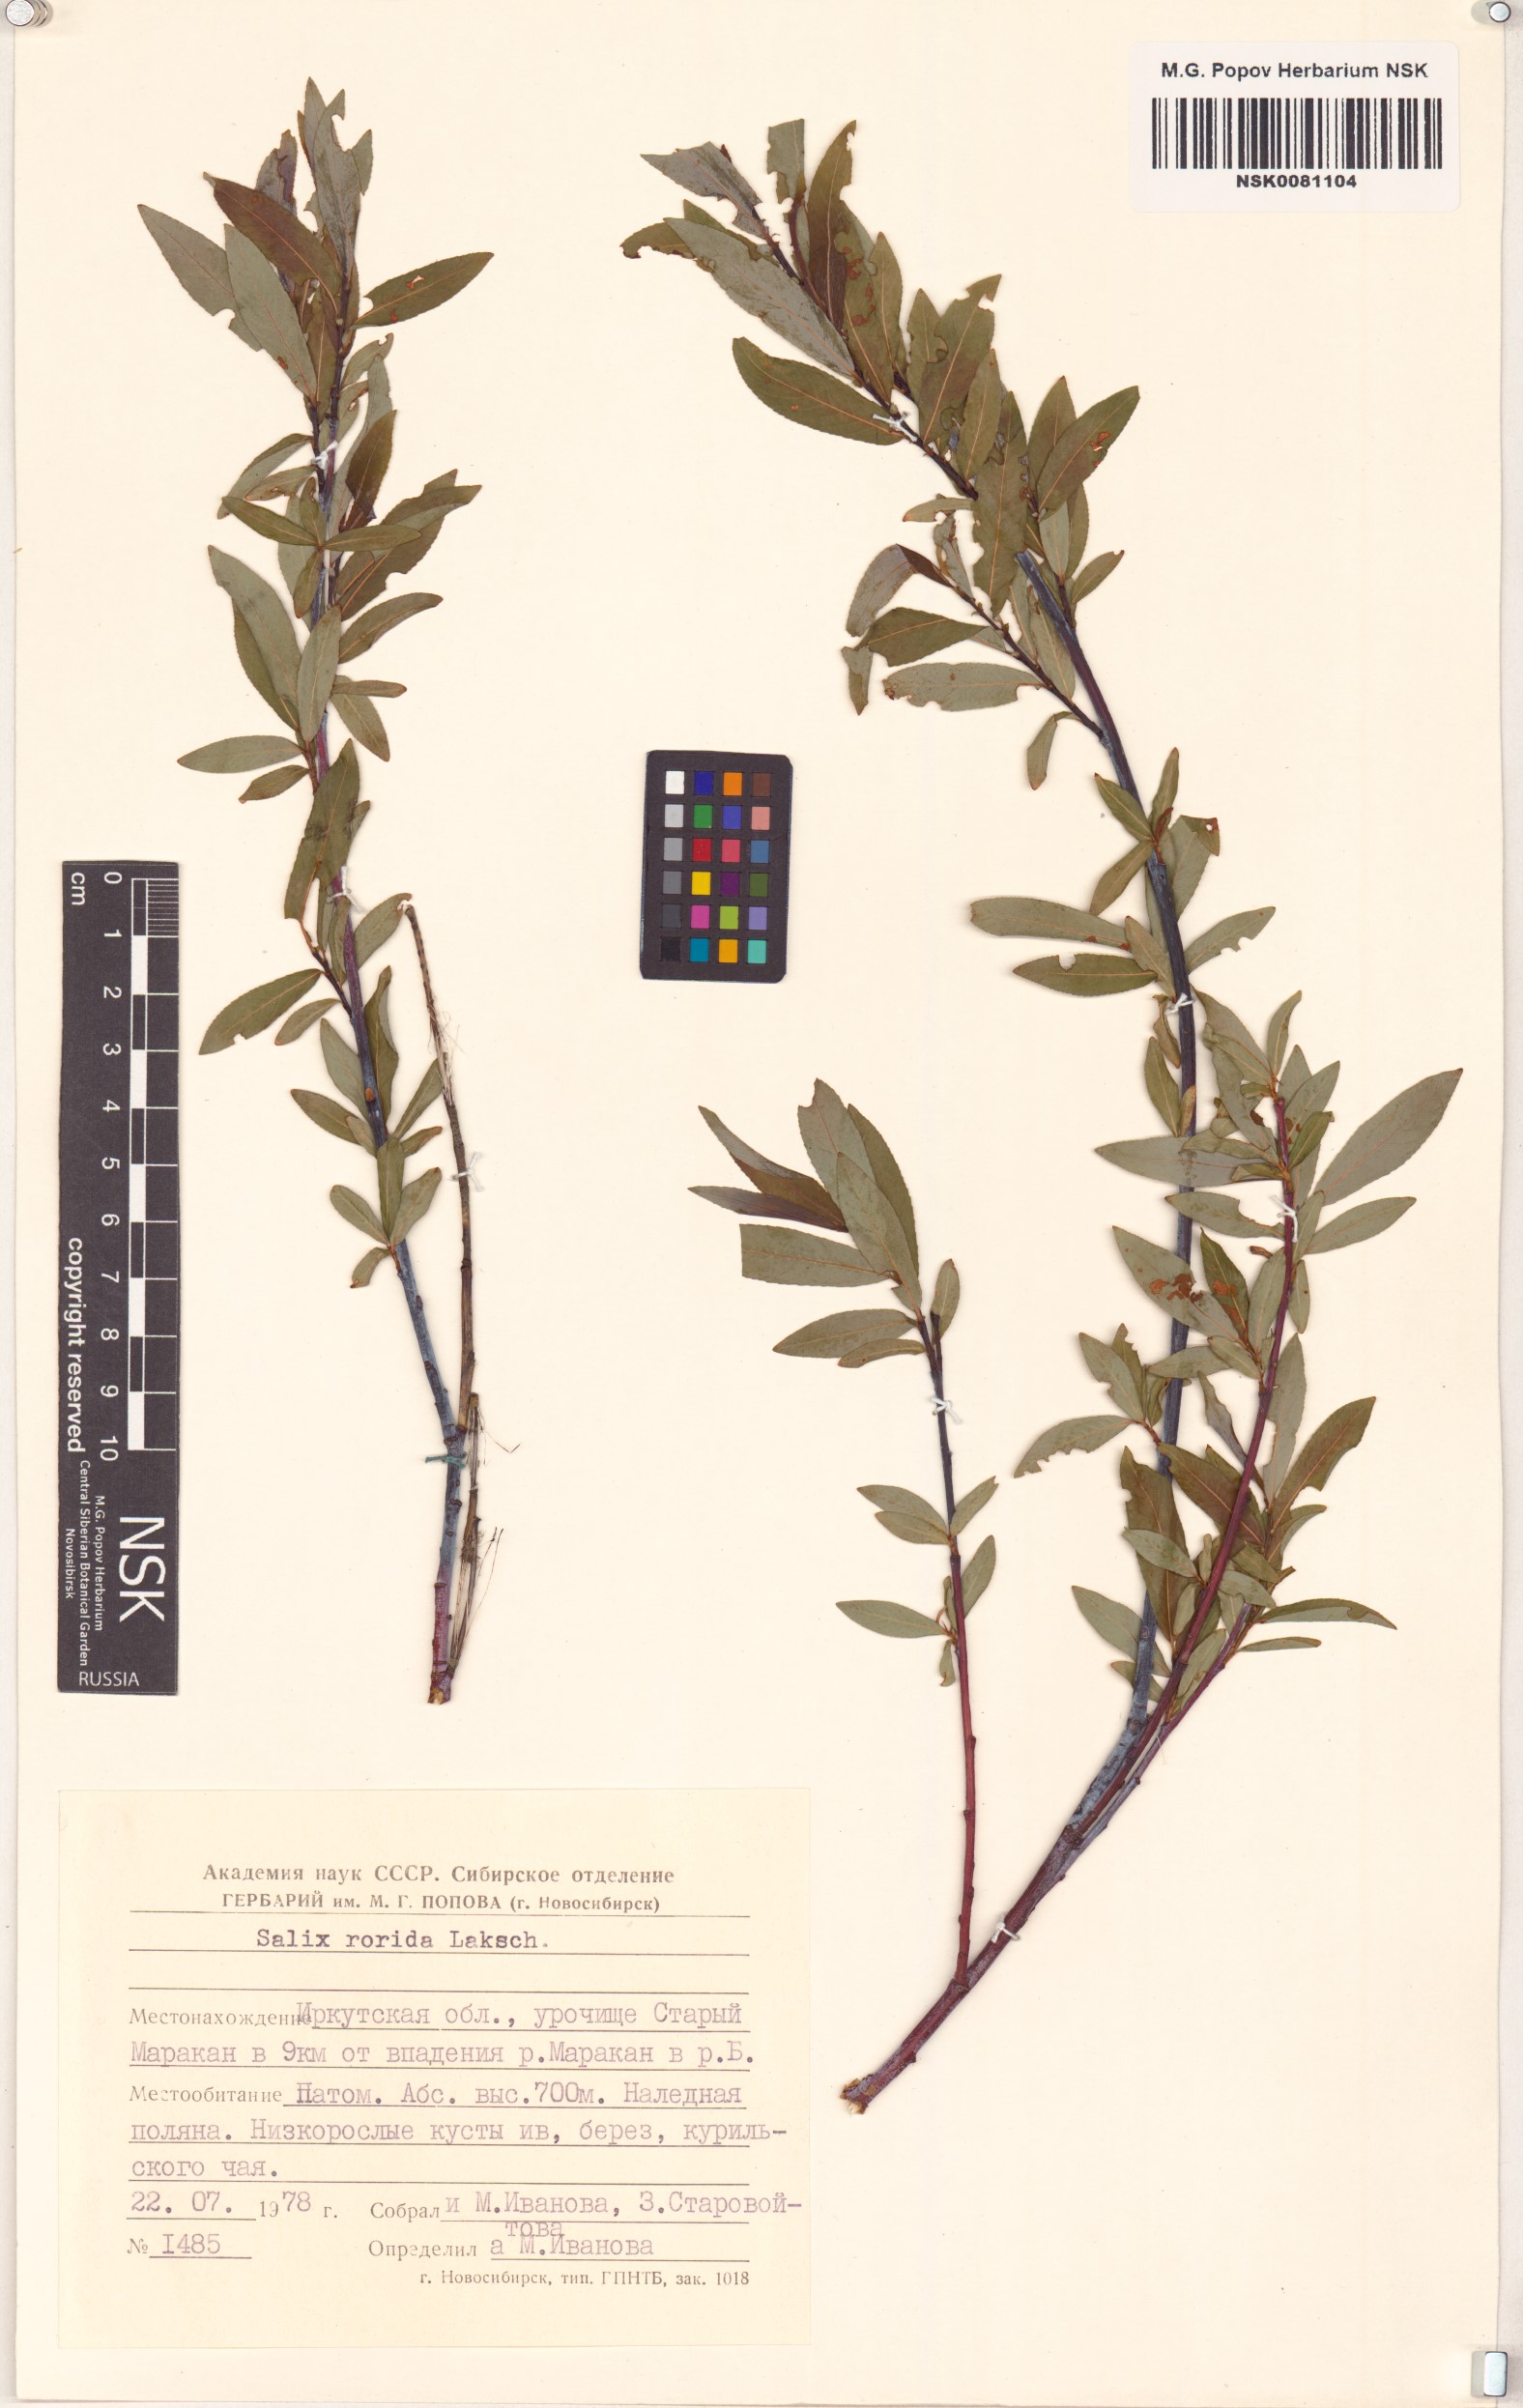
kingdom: Plantae
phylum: Tracheophyta
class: Magnoliopsida
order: Malpighiales
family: Salicaceae
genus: Salix
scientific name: Salix rorida
